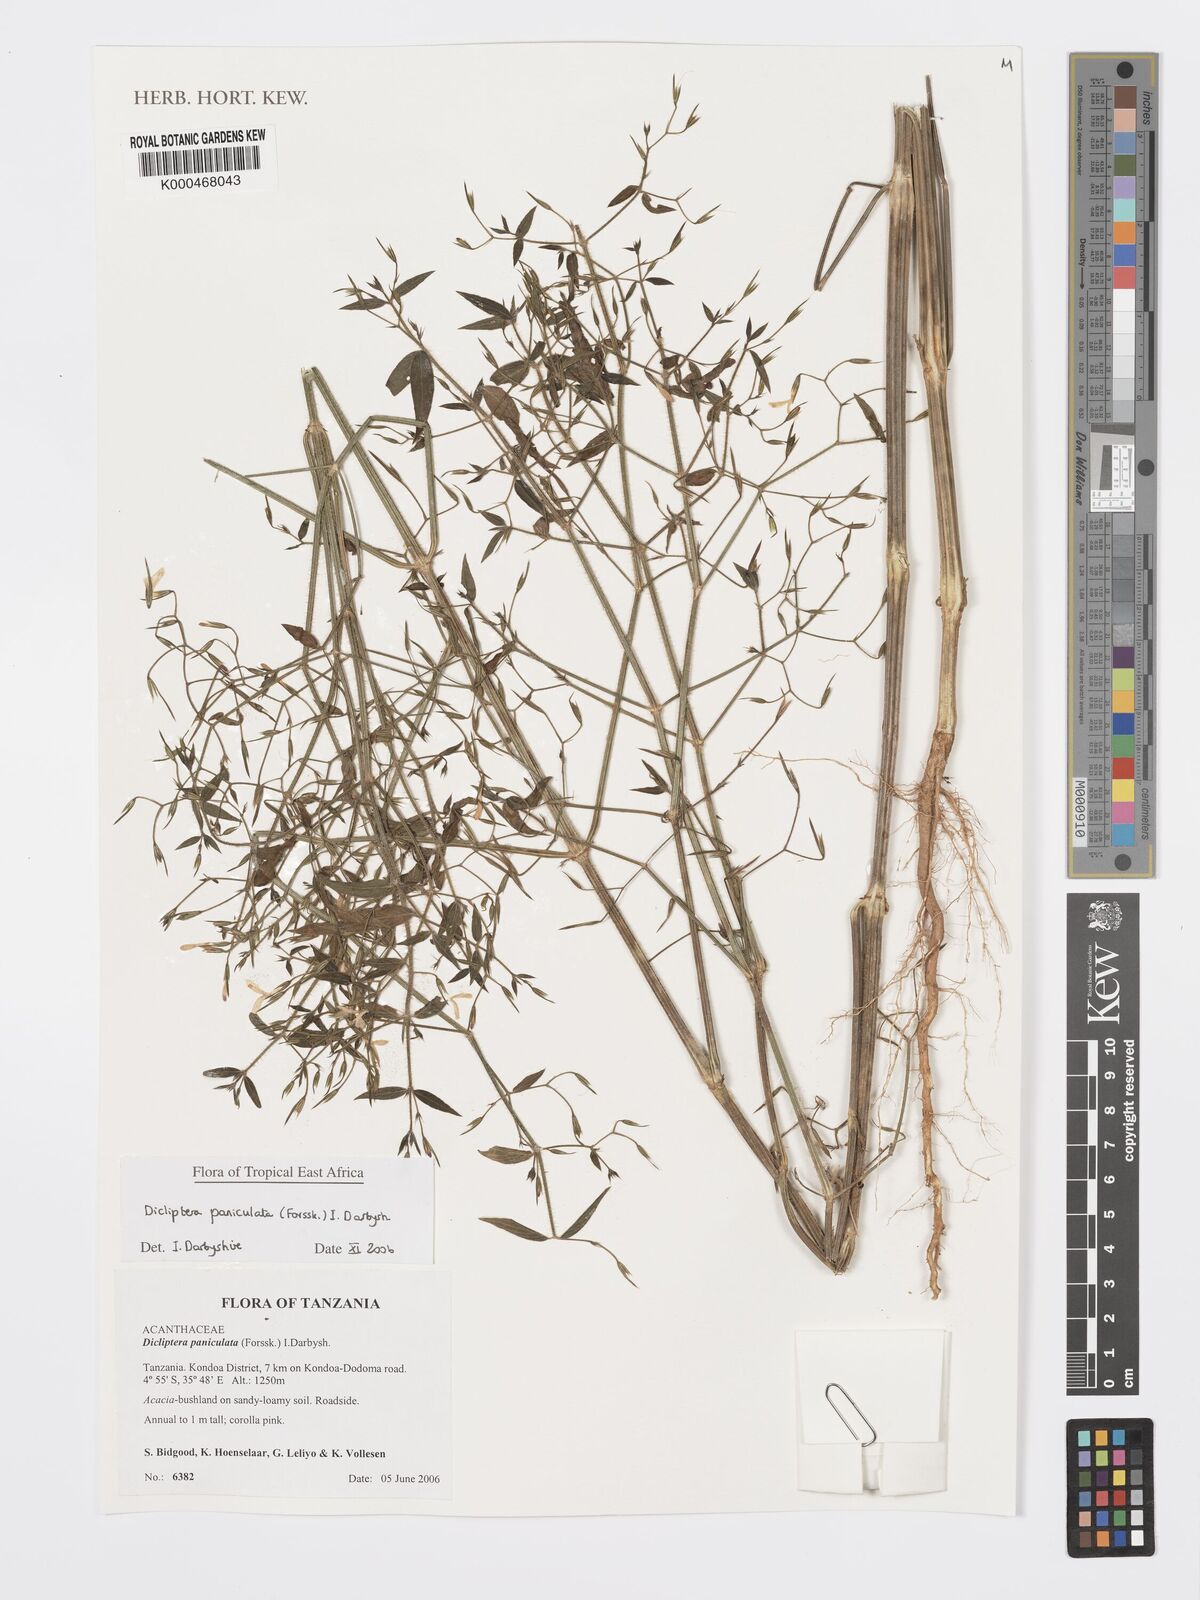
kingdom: Plantae
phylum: Tracheophyta
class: Magnoliopsida
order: Lamiales
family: Acanthaceae
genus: Dicliptera
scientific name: Dicliptera paniculata
